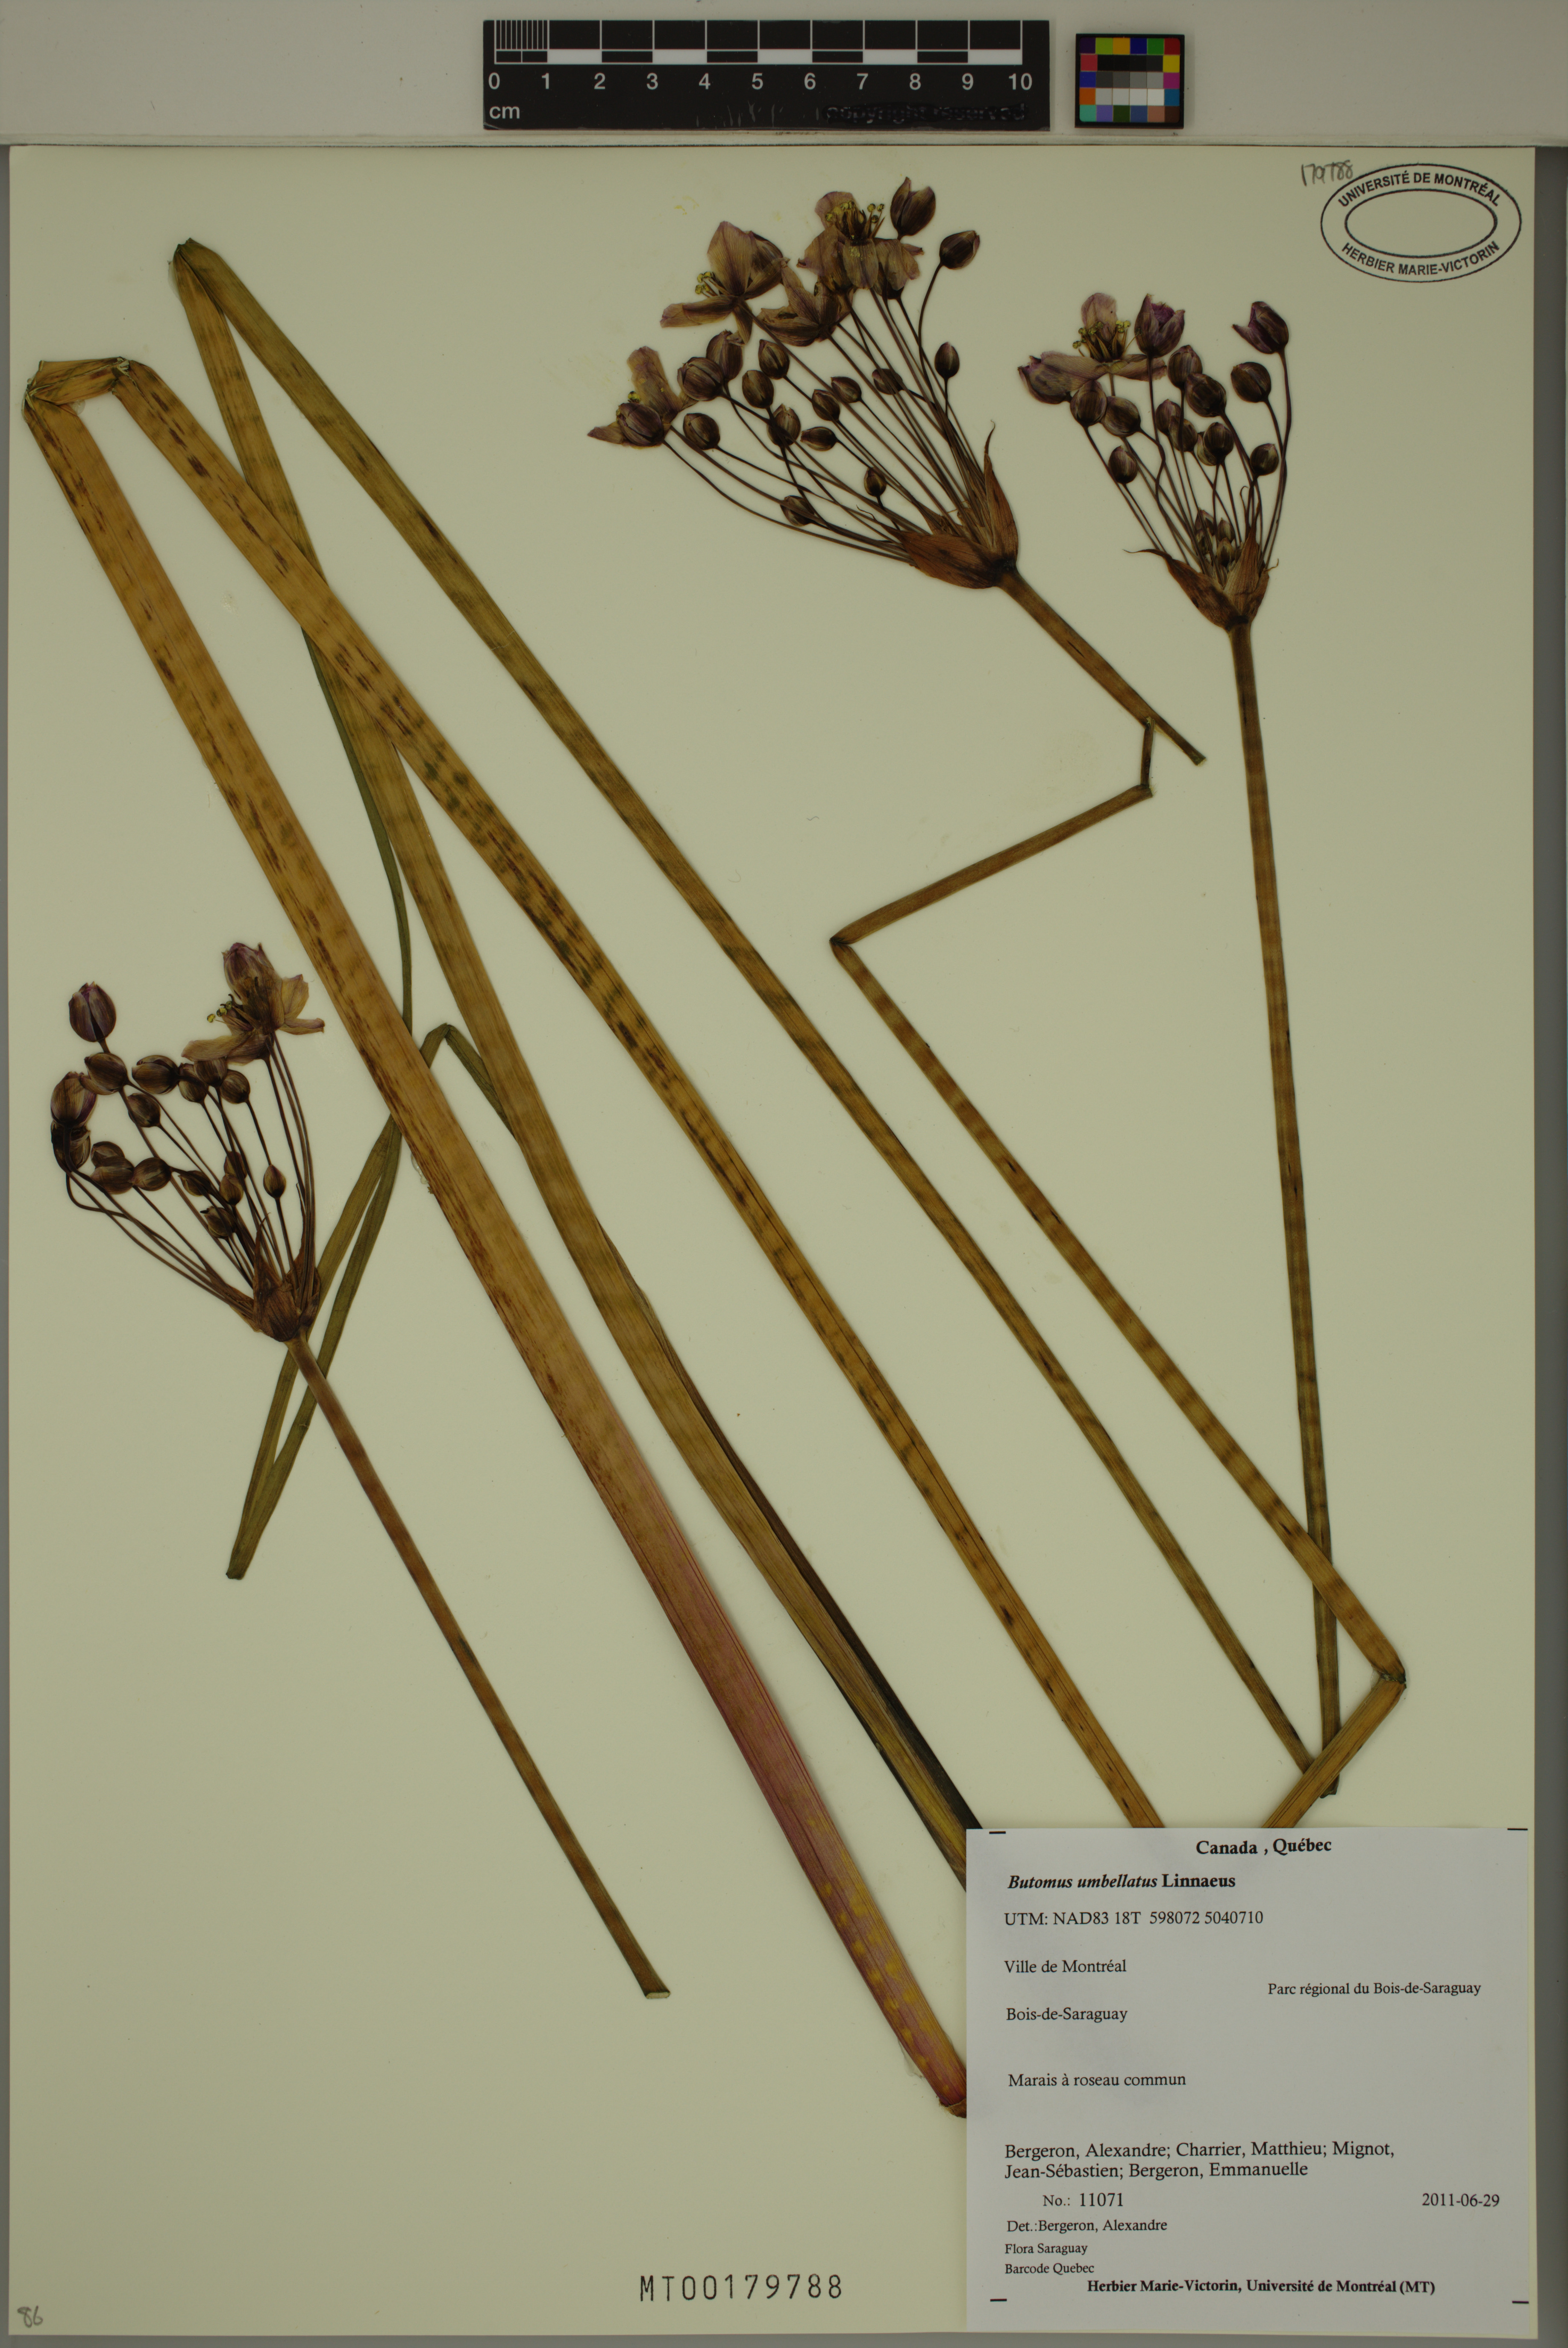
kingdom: Plantae
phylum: Tracheophyta
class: Liliopsida
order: Alismatales
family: Butomaceae
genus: Butomus
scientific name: Butomus umbellatus
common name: Flowering-rush
